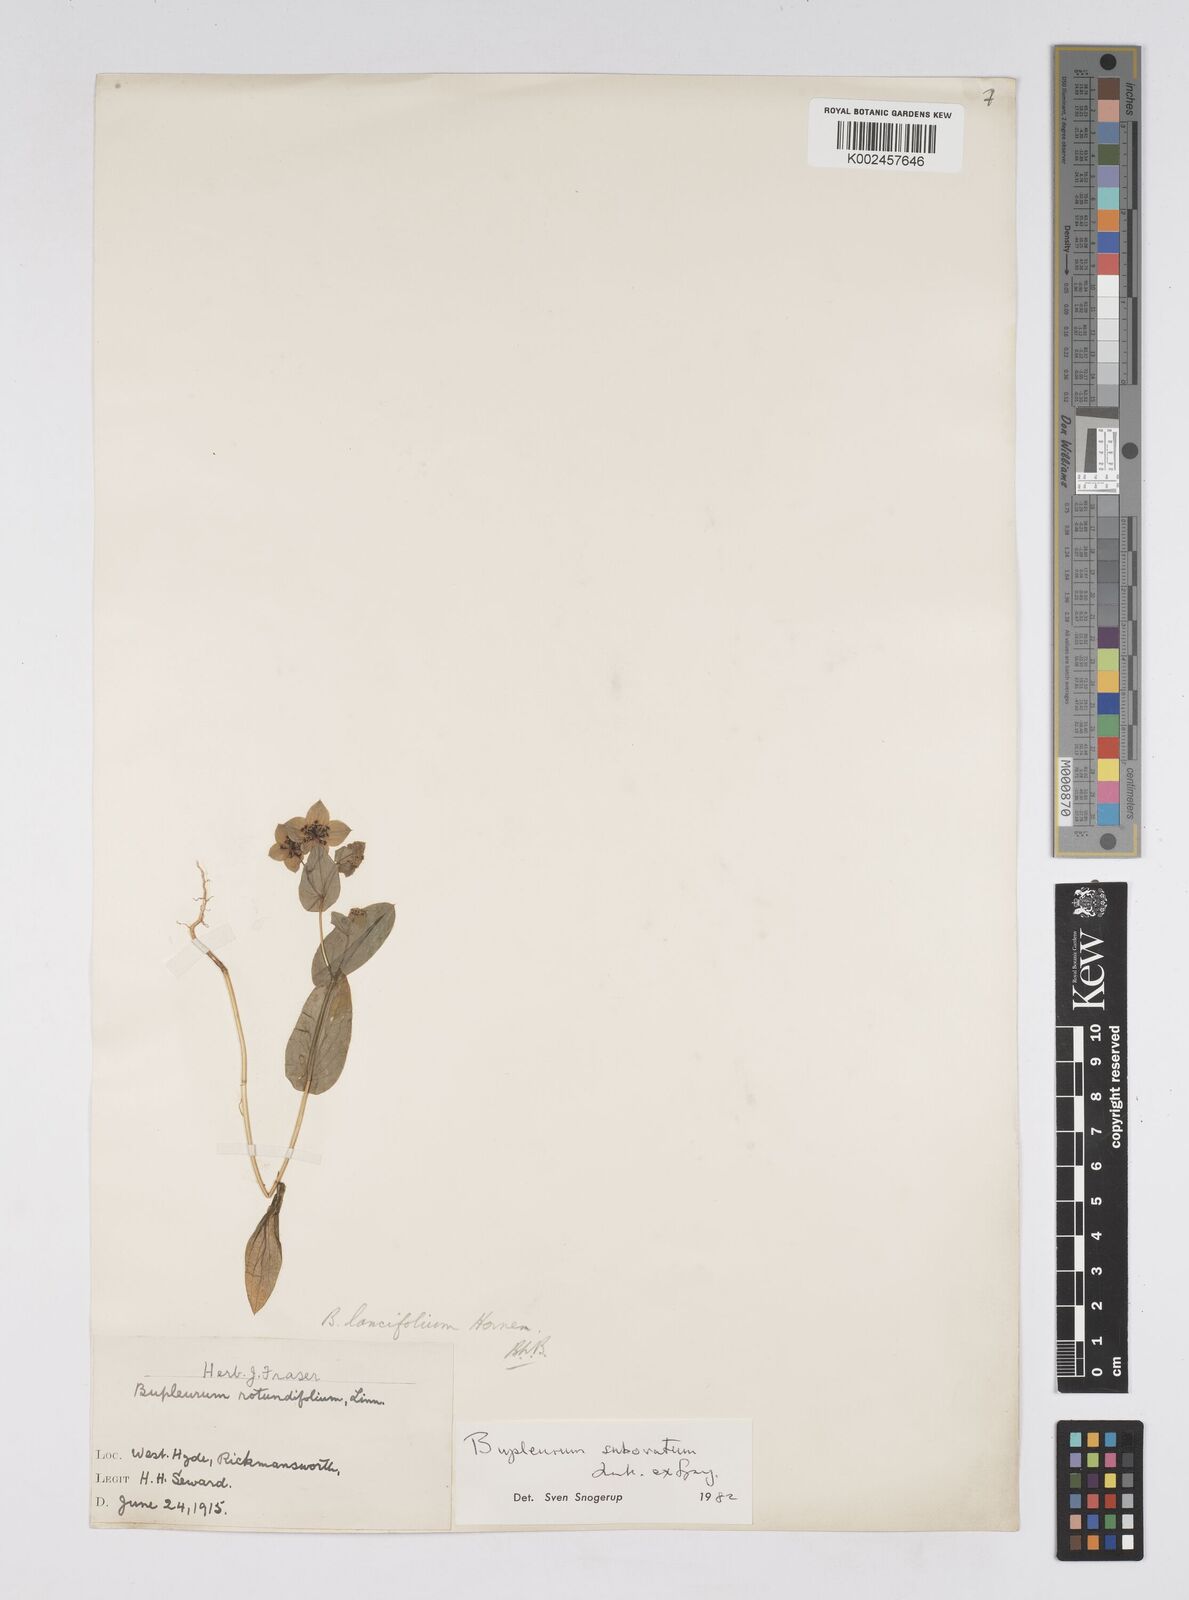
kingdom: Plantae
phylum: Tracheophyta
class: Magnoliopsida
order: Apiales
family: Apiaceae
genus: Bupleurum
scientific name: Bupleurum subovatum
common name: False thorow-wax
